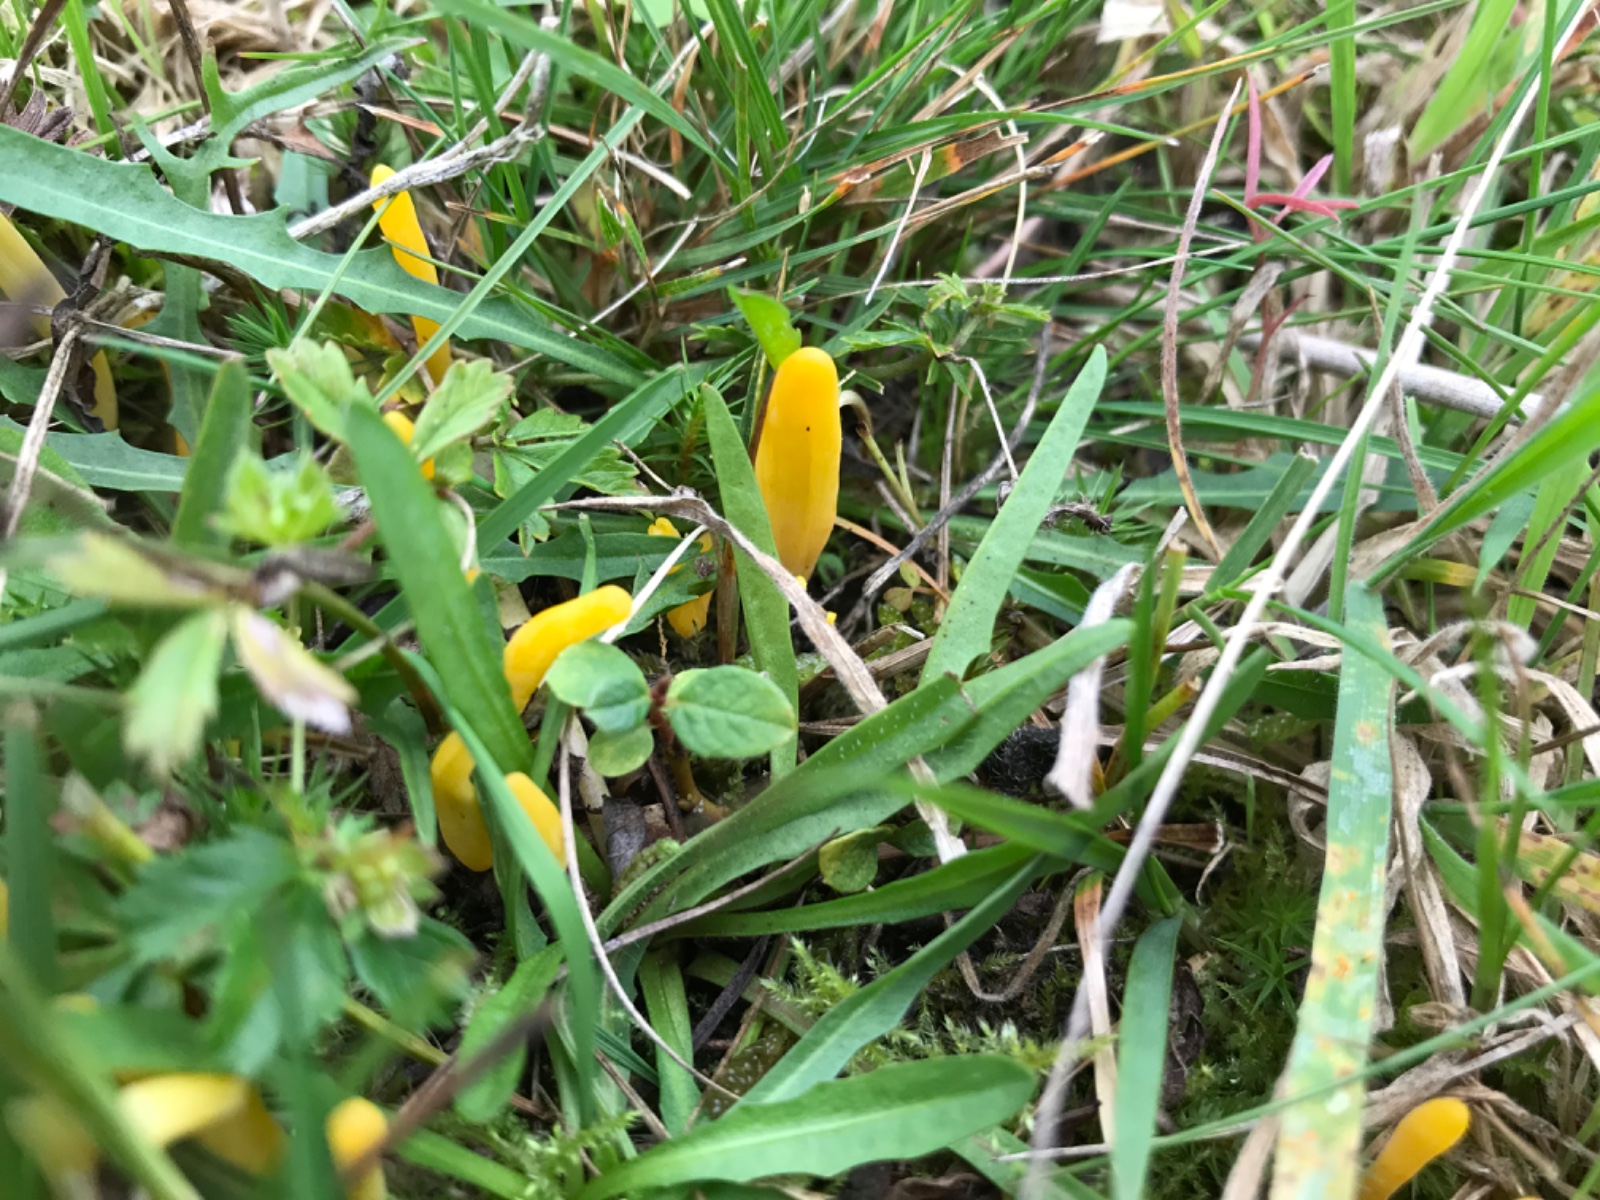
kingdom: Fungi
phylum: Basidiomycota
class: Agaricomycetes
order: Agaricales
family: Clavariaceae
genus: Clavulinopsis
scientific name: Clavulinopsis
